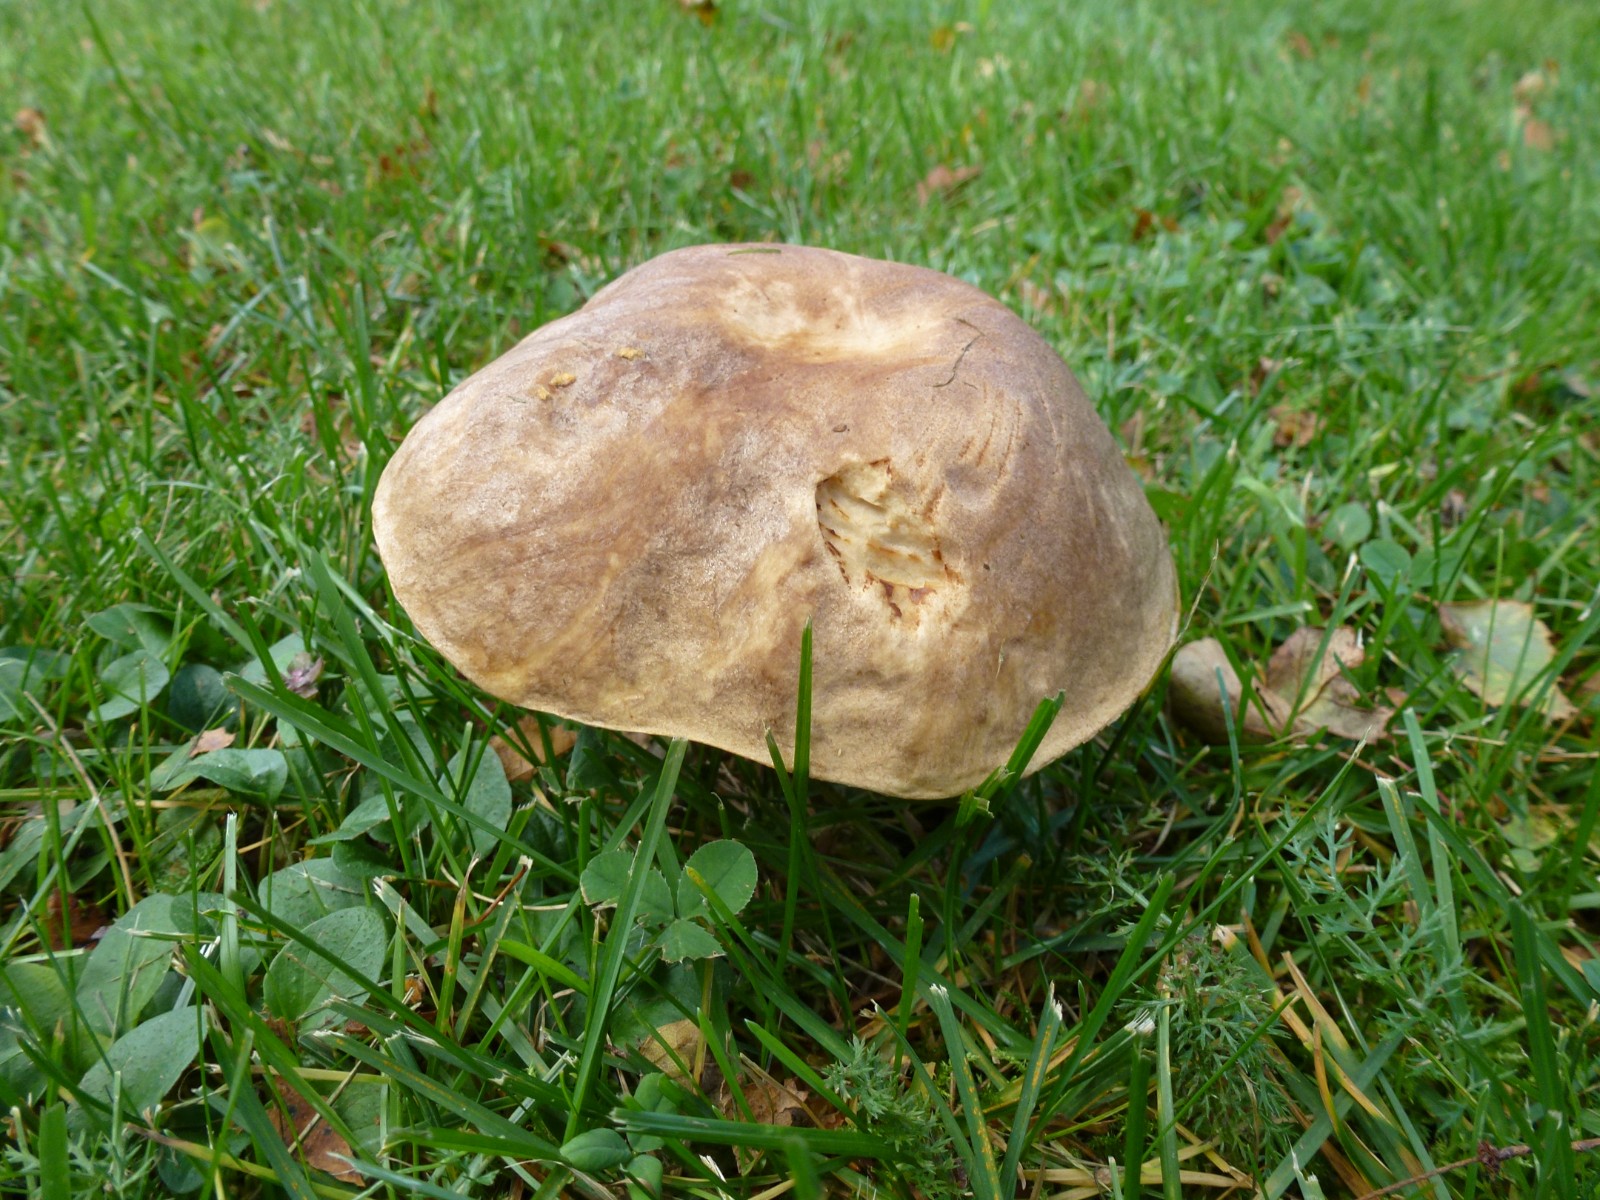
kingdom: Fungi
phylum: Basidiomycota
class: Agaricomycetes
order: Boletales
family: Boletaceae
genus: Leccinum
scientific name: Leccinum scabrum
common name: brun skælrørhat
